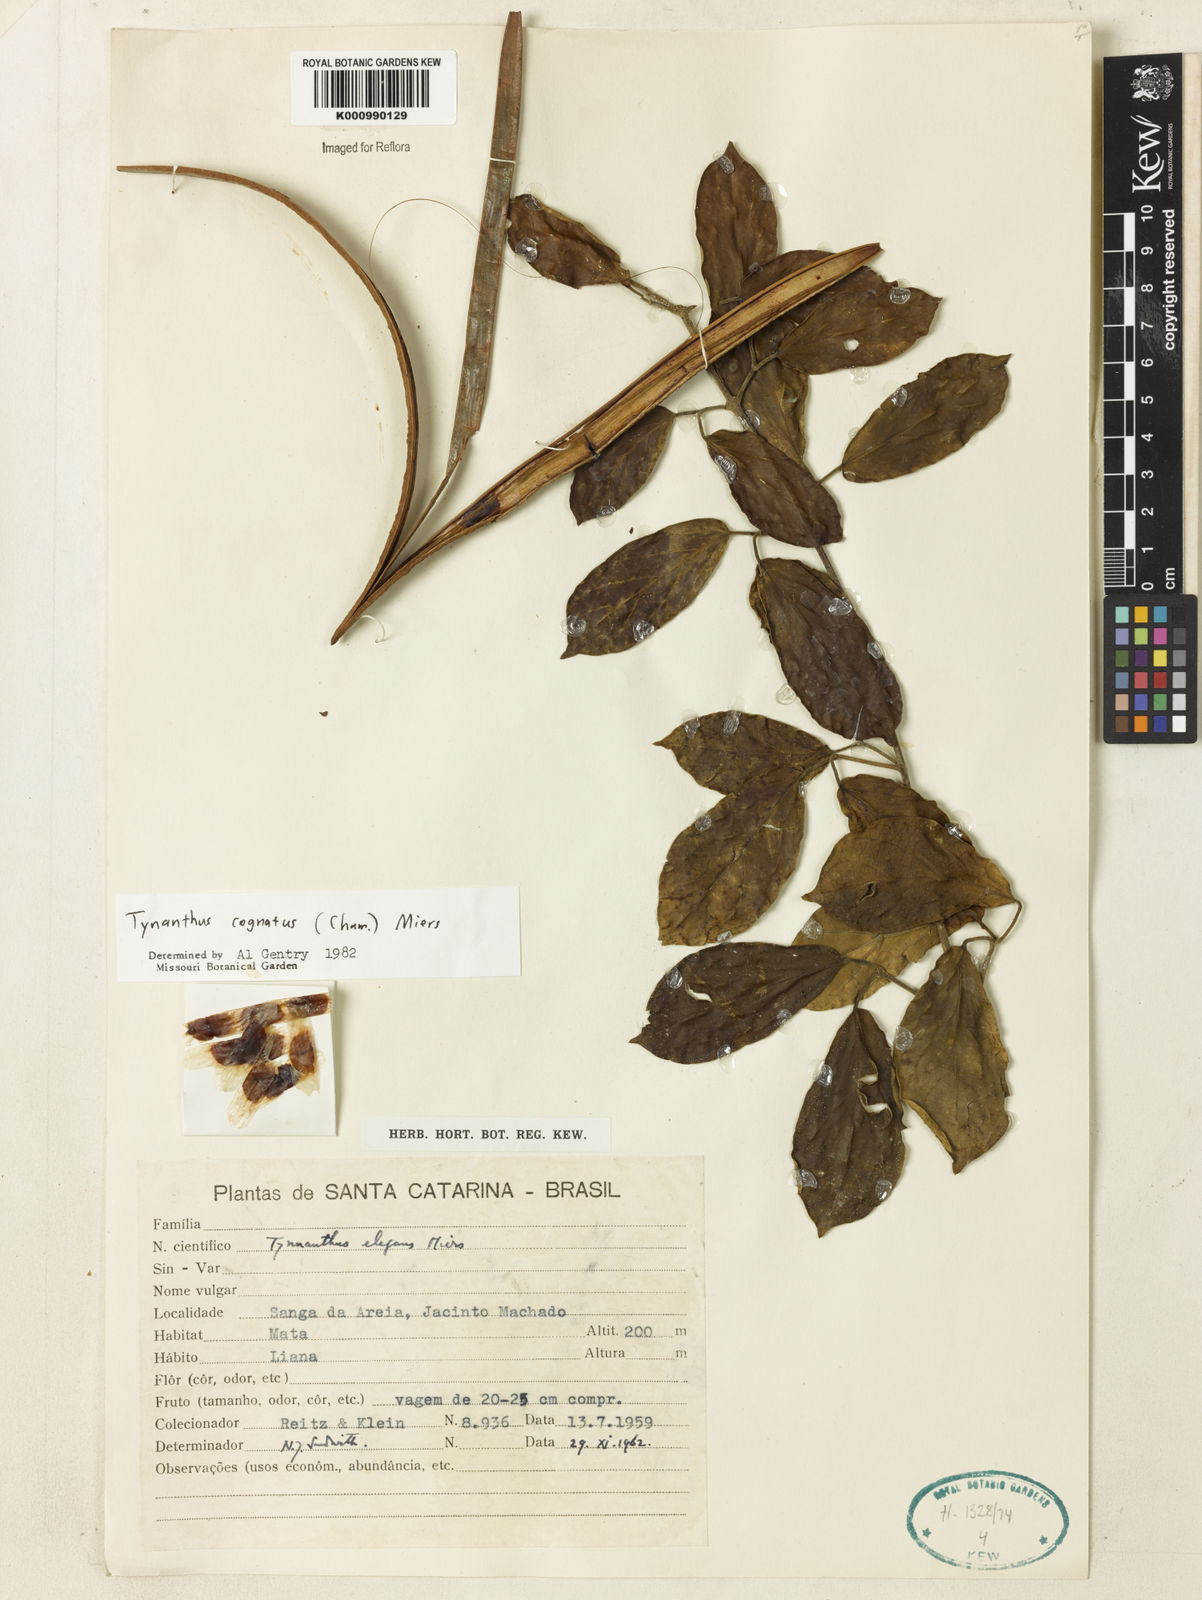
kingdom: Plantae
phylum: Tracheophyta
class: Magnoliopsida
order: Lamiales
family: Bignoniaceae
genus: Tynanthus
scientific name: Tynanthus cognatus
